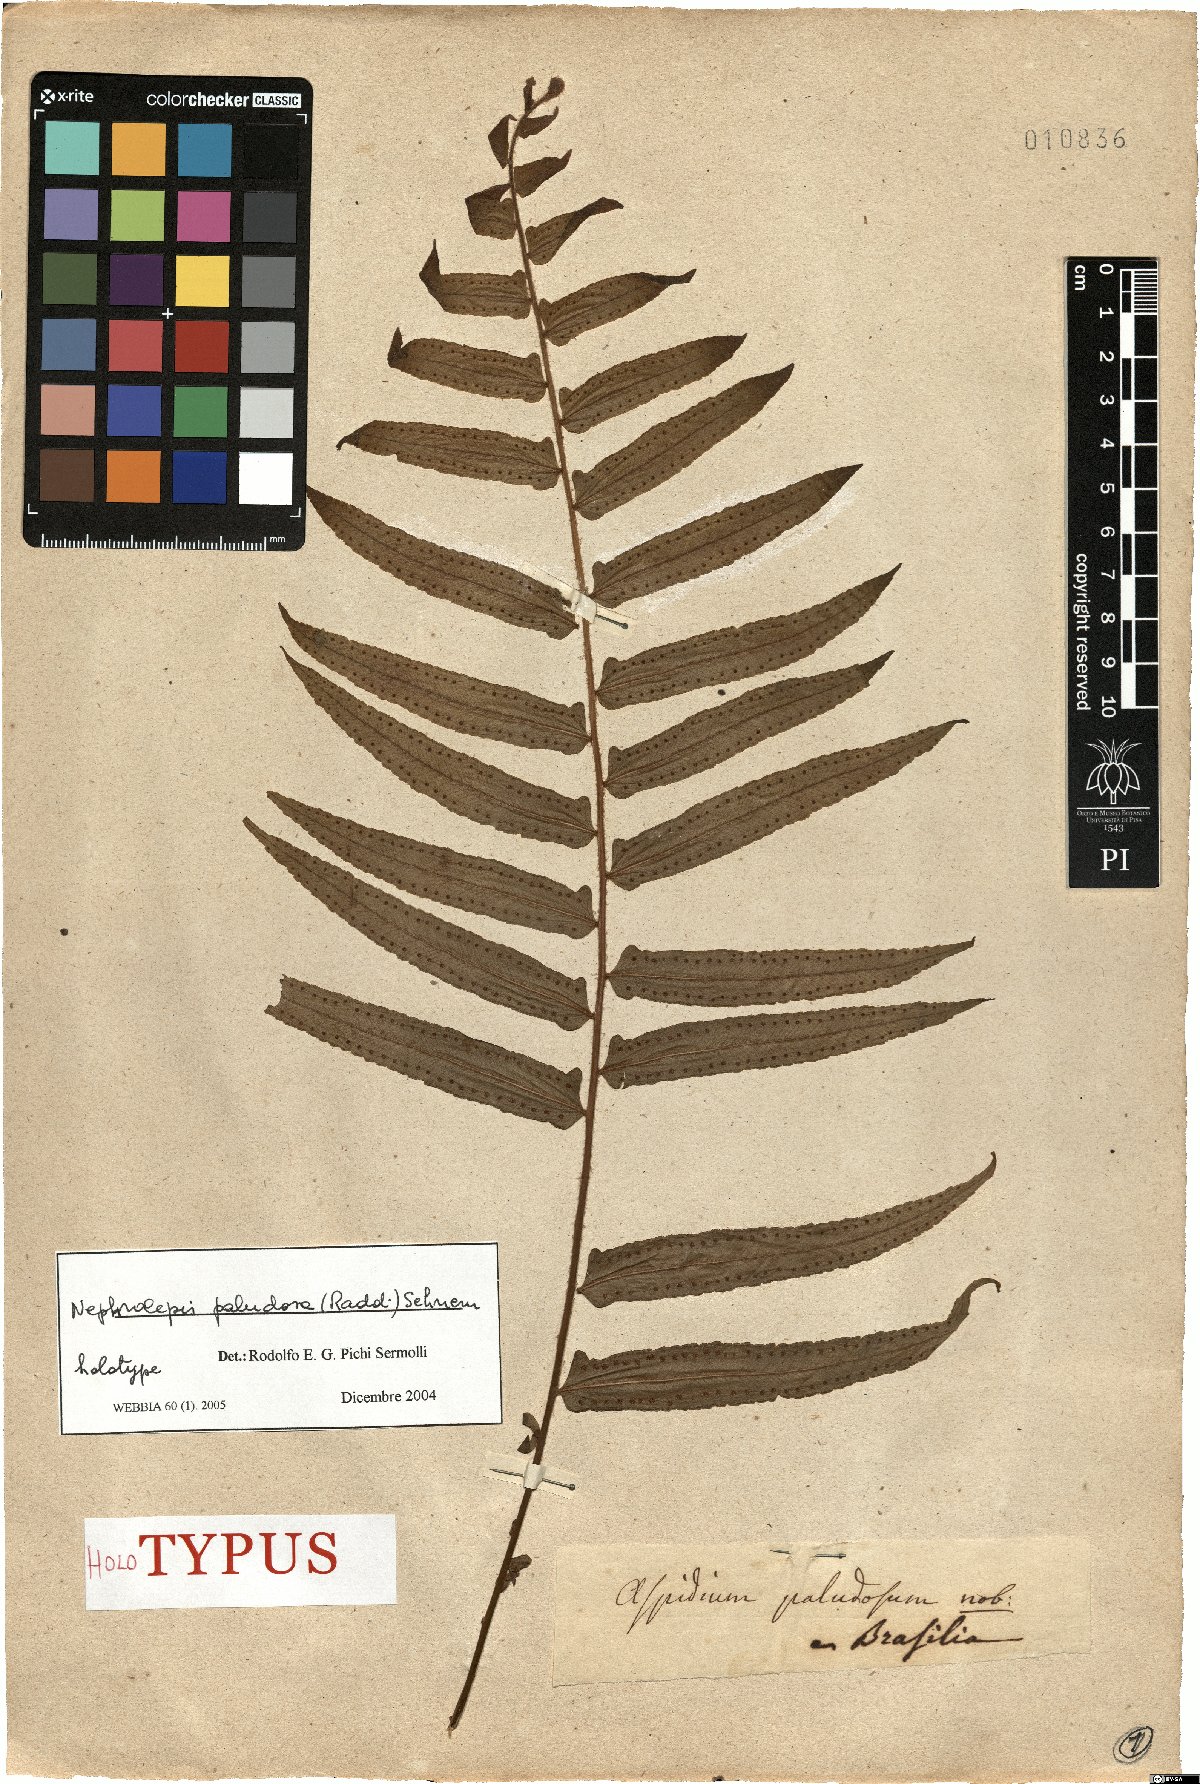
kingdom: Plantae
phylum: Tracheophyta
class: Polypodiopsida
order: Polypodiales
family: Nephrolepidaceae
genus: Nephrolepis
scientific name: Nephrolepis biserrata
